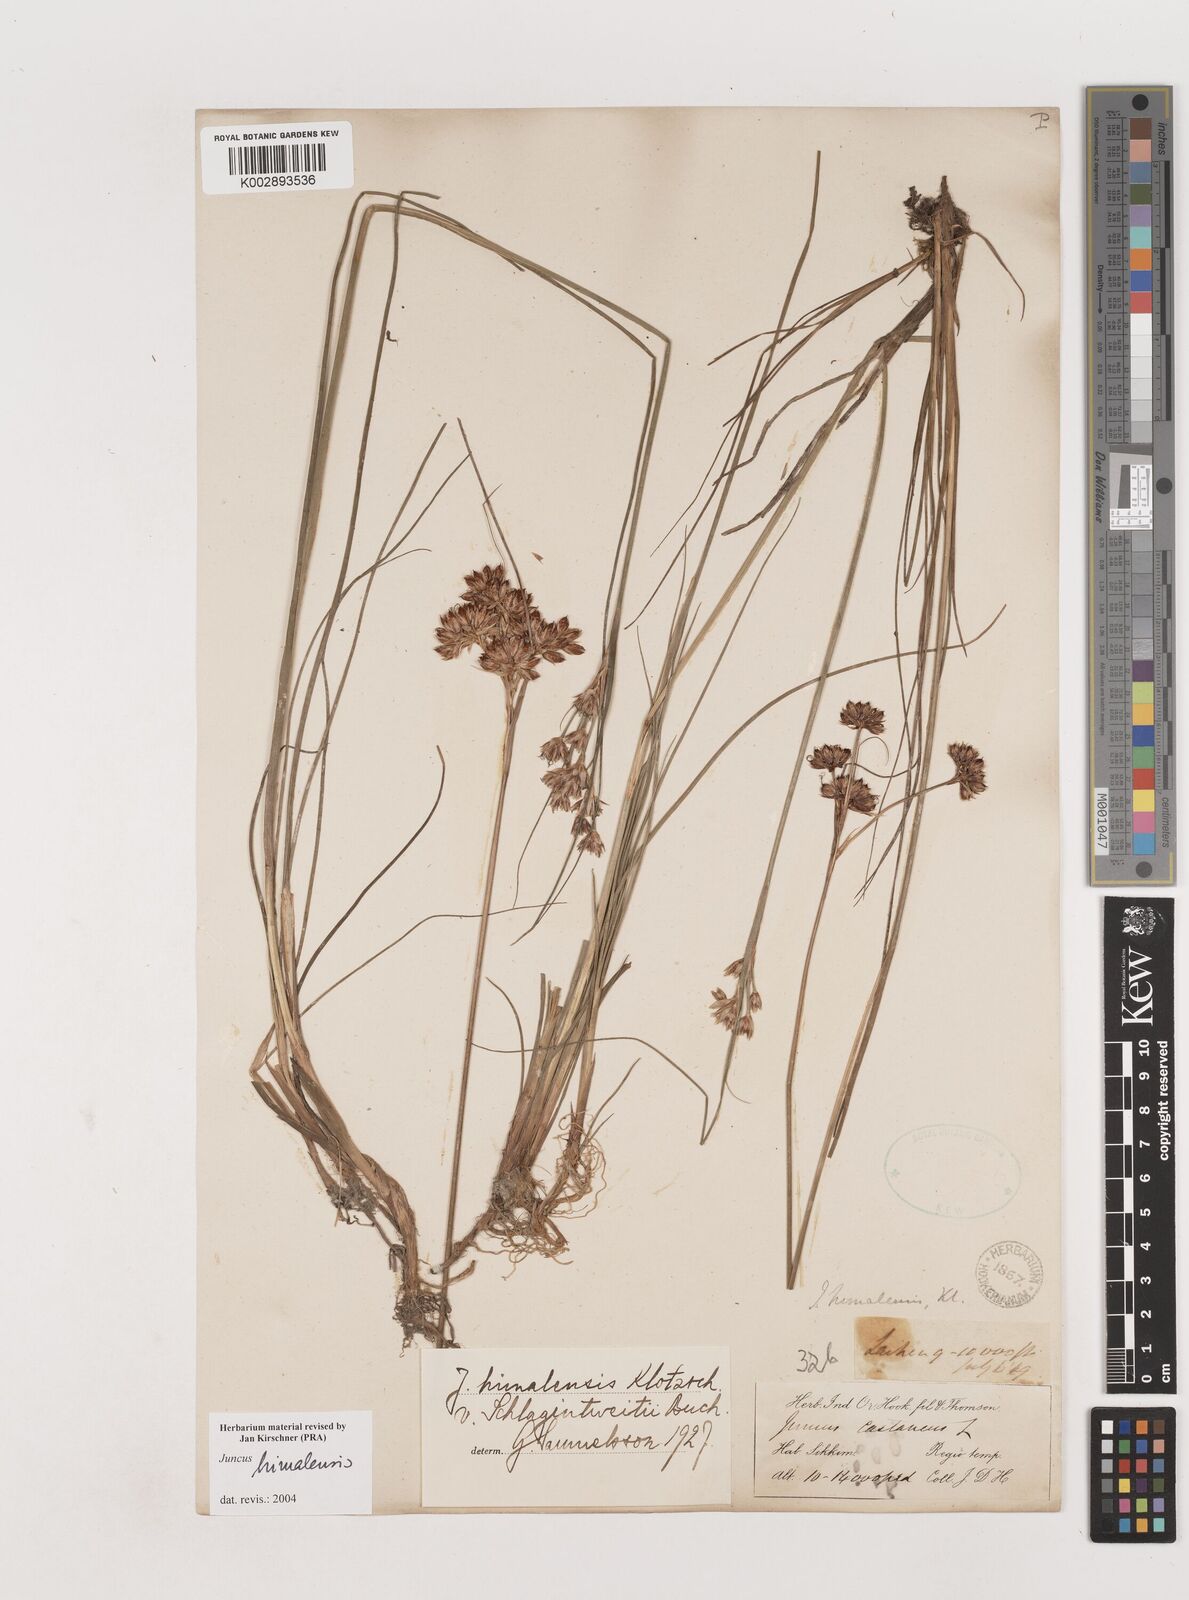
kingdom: Plantae
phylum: Tracheophyta
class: Liliopsida
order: Poales
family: Juncaceae
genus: Juncus
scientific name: Juncus himalensis
